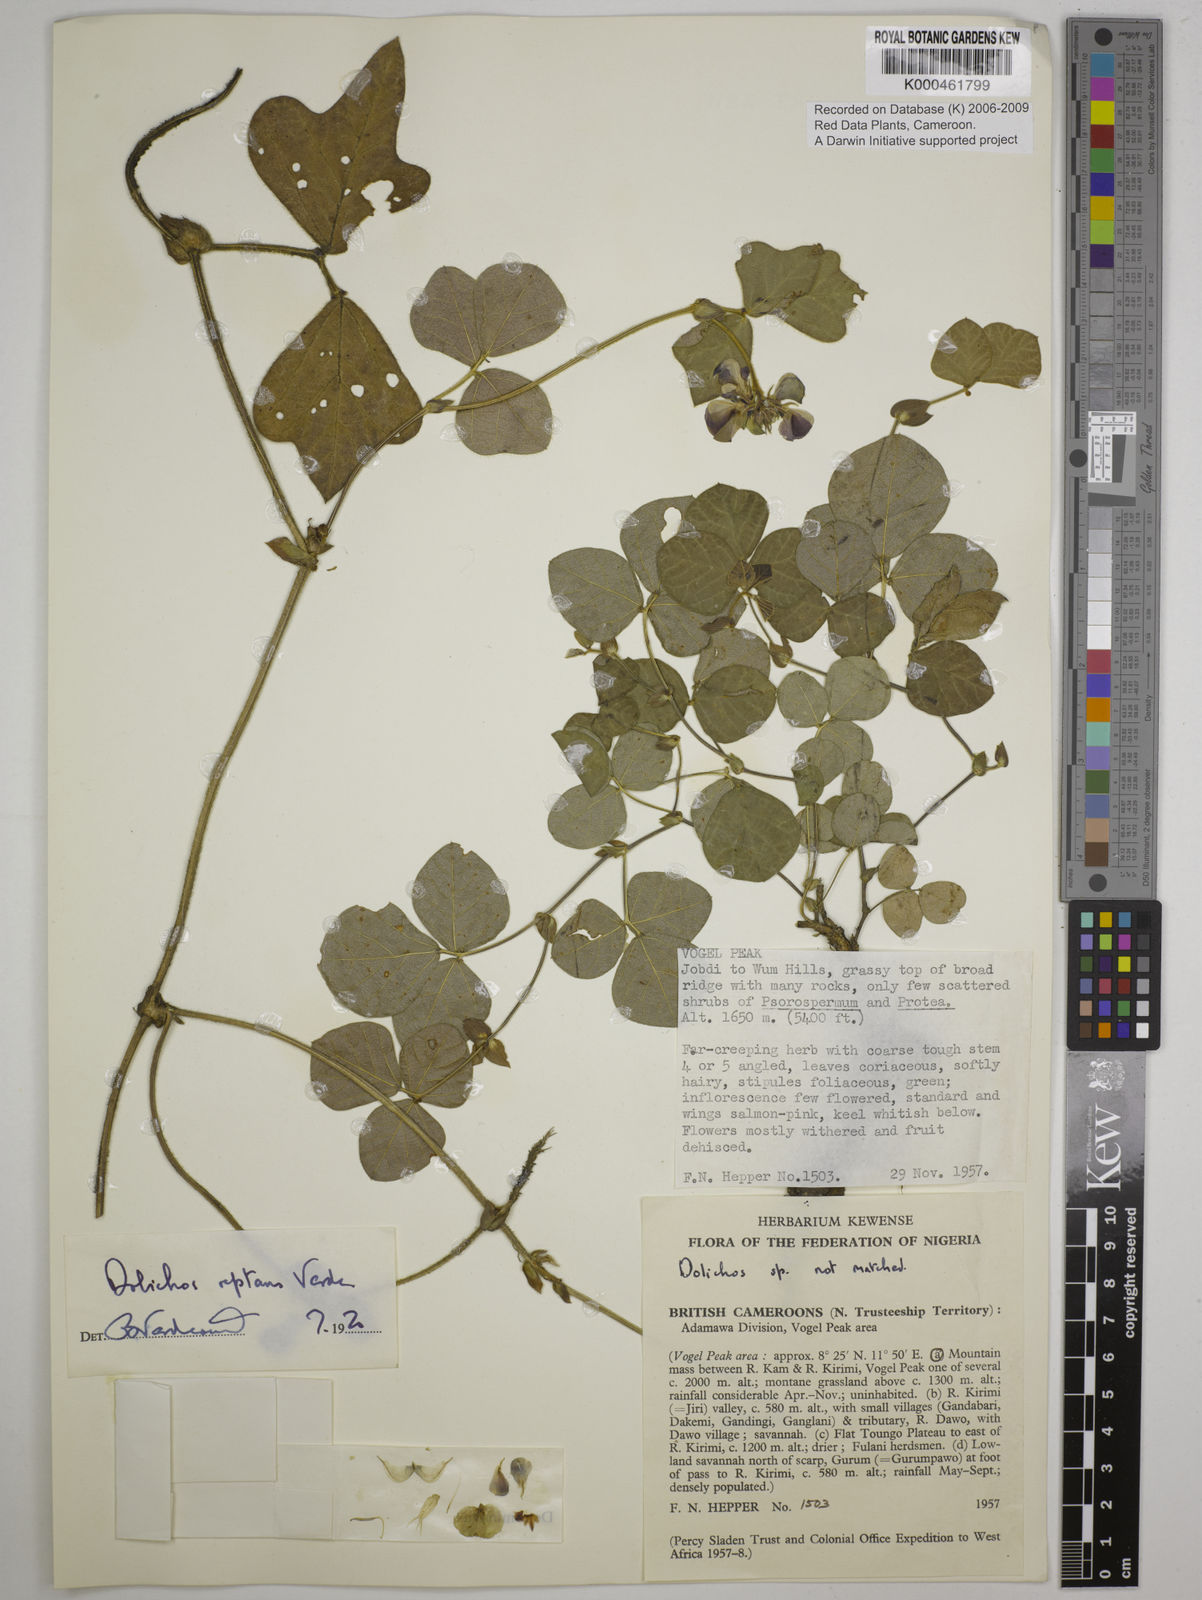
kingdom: Plantae
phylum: Tracheophyta
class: Magnoliopsida
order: Fabales
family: Fabaceae
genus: Dolichos
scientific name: Dolichos reptans
